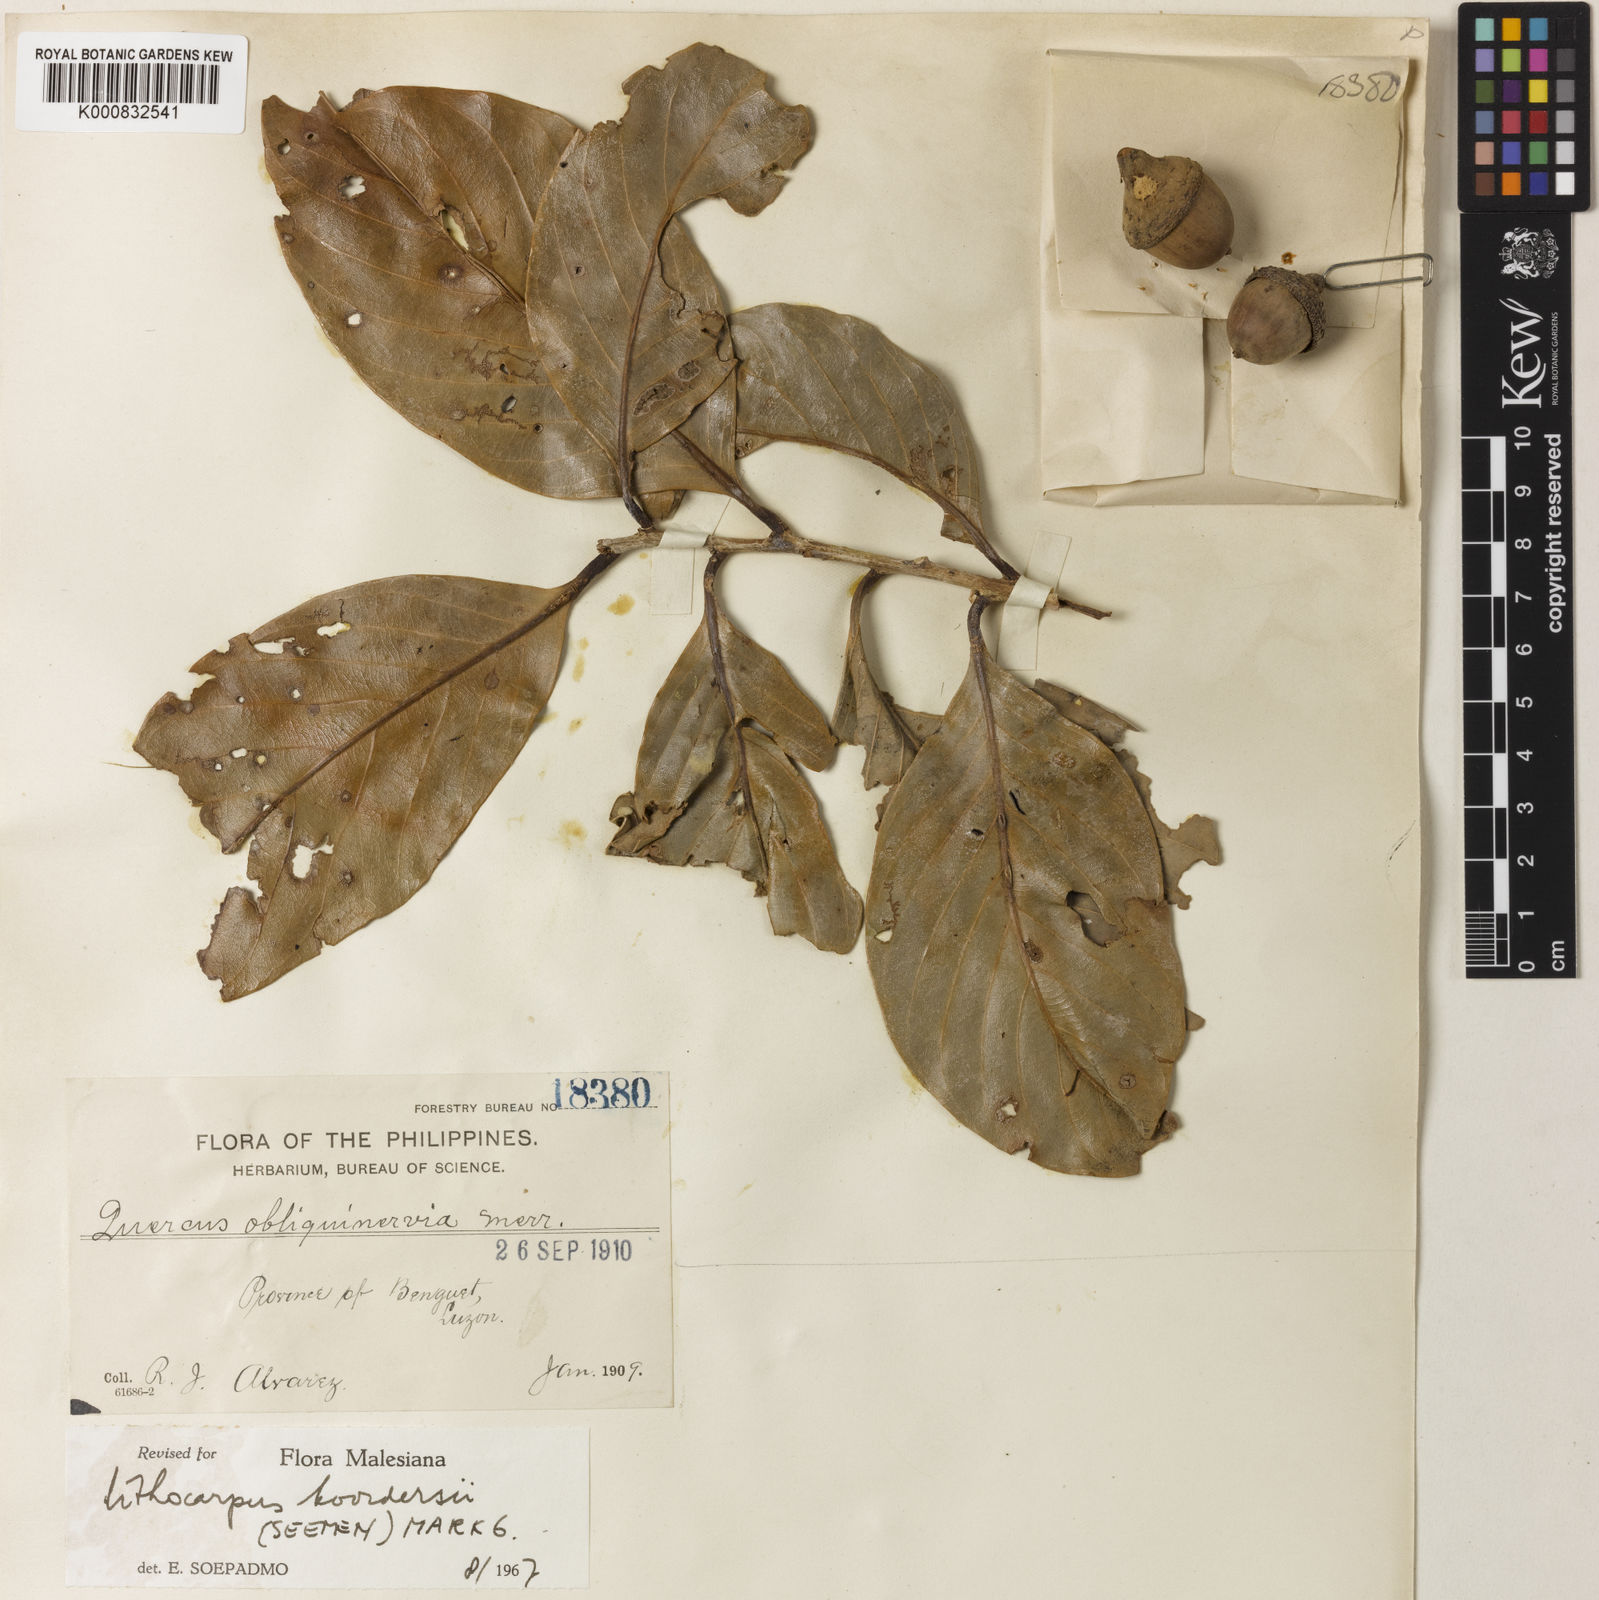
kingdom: Plantae
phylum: Tracheophyta
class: Magnoliopsida
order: Fagales
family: Fagaceae
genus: Lithocarpus
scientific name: Lithocarpus glutinosus
